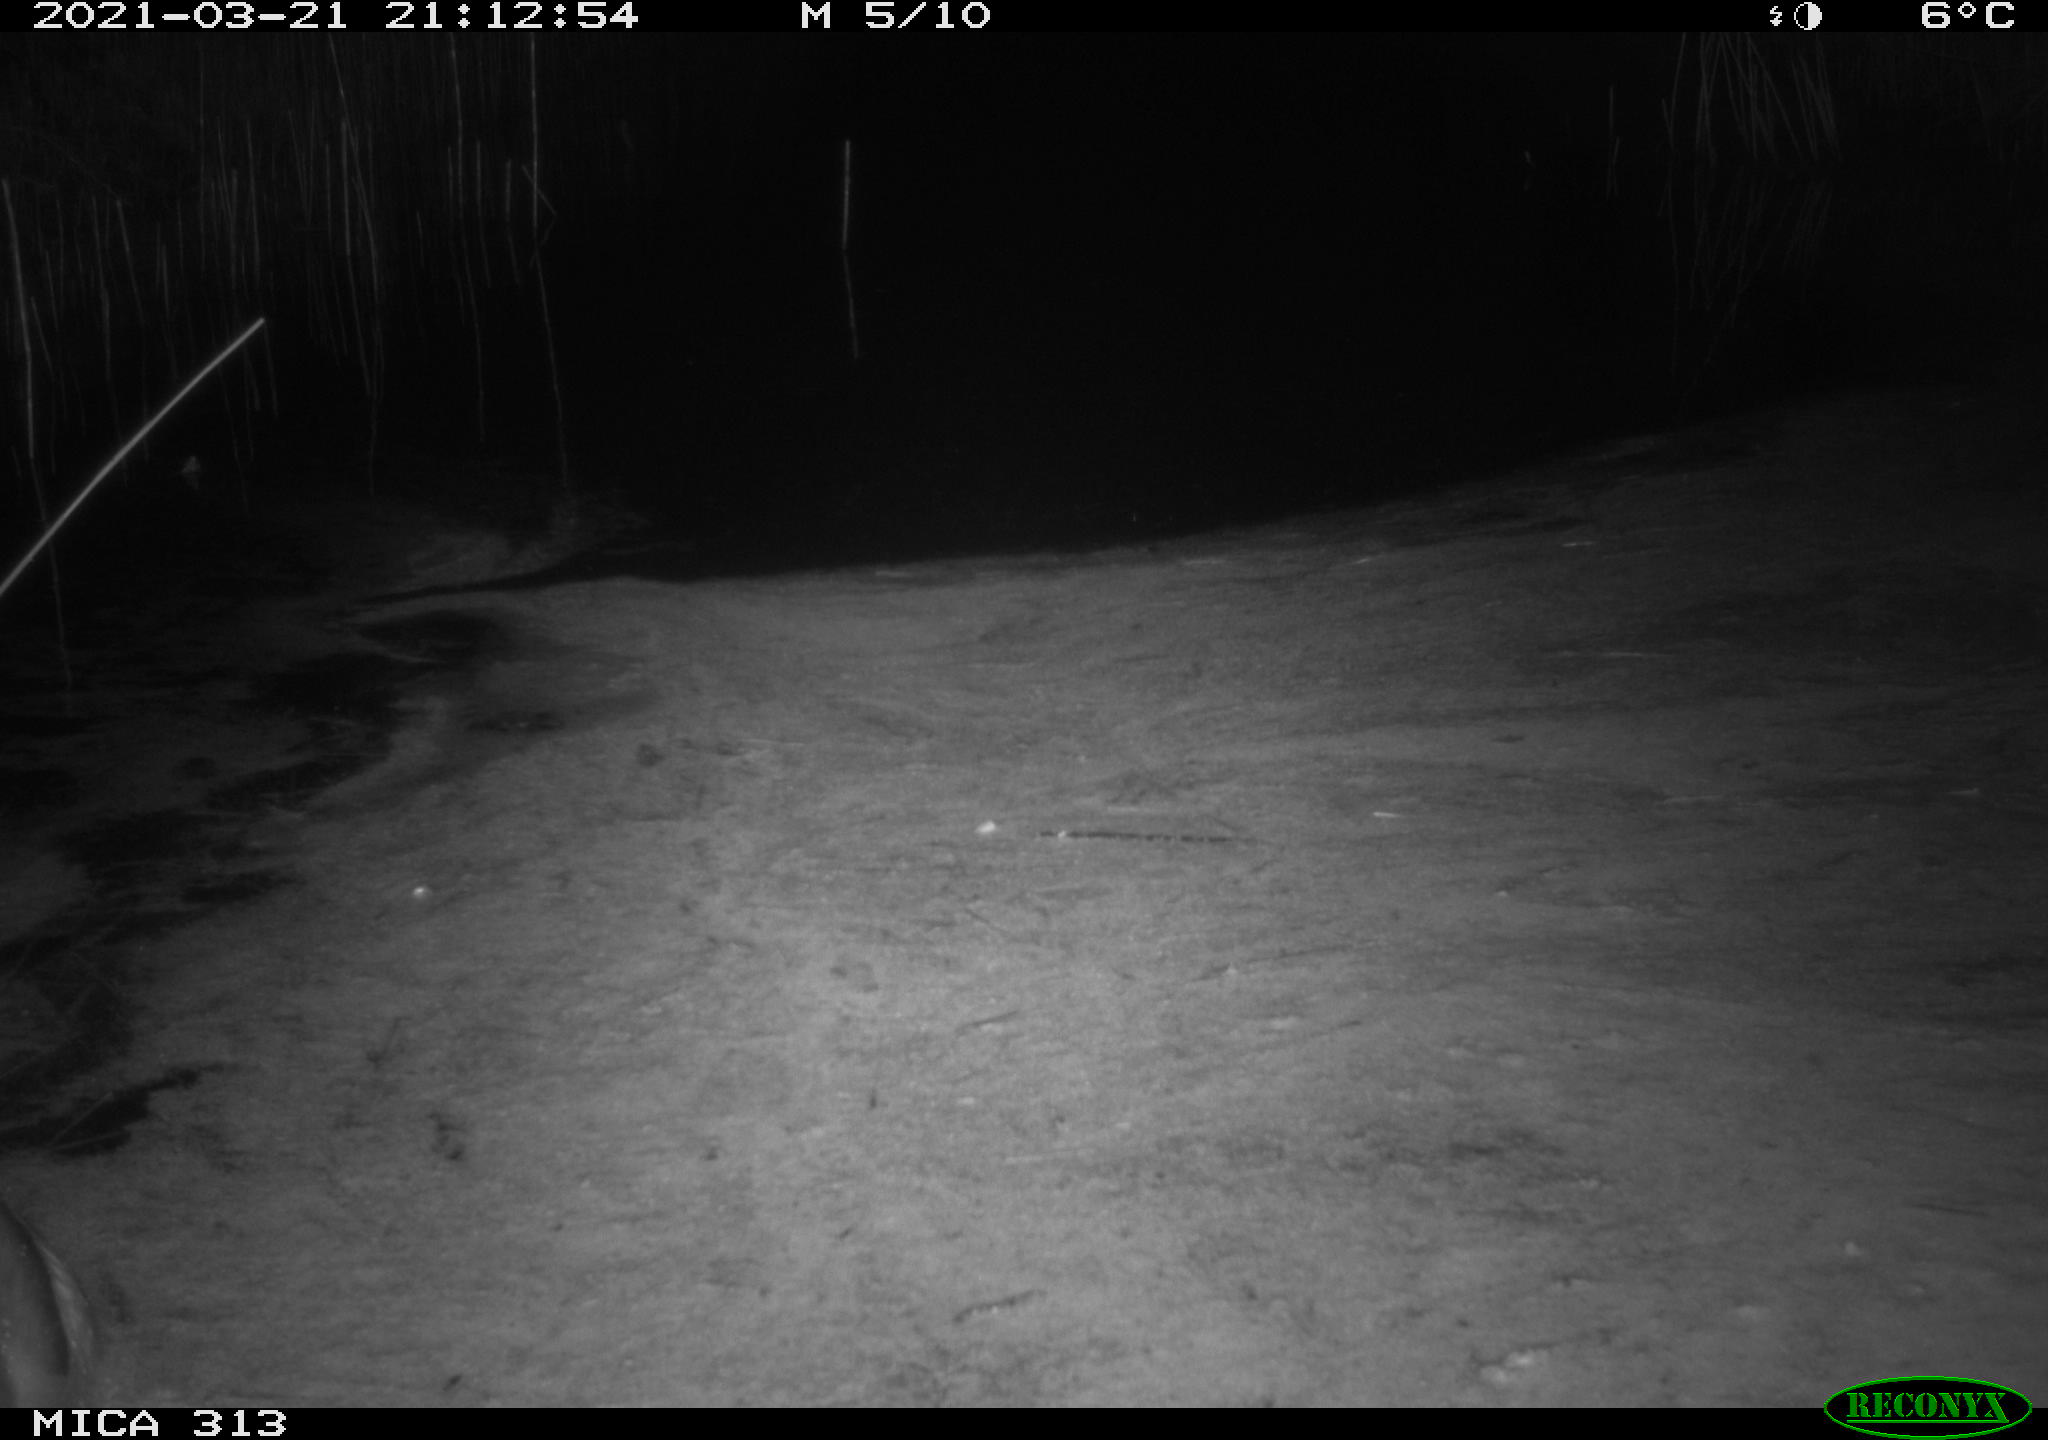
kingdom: Animalia
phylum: Chordata
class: Aves
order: Anseriformes
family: Anatidae
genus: Anas
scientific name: Anas platyrhynchos
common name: Mallard
